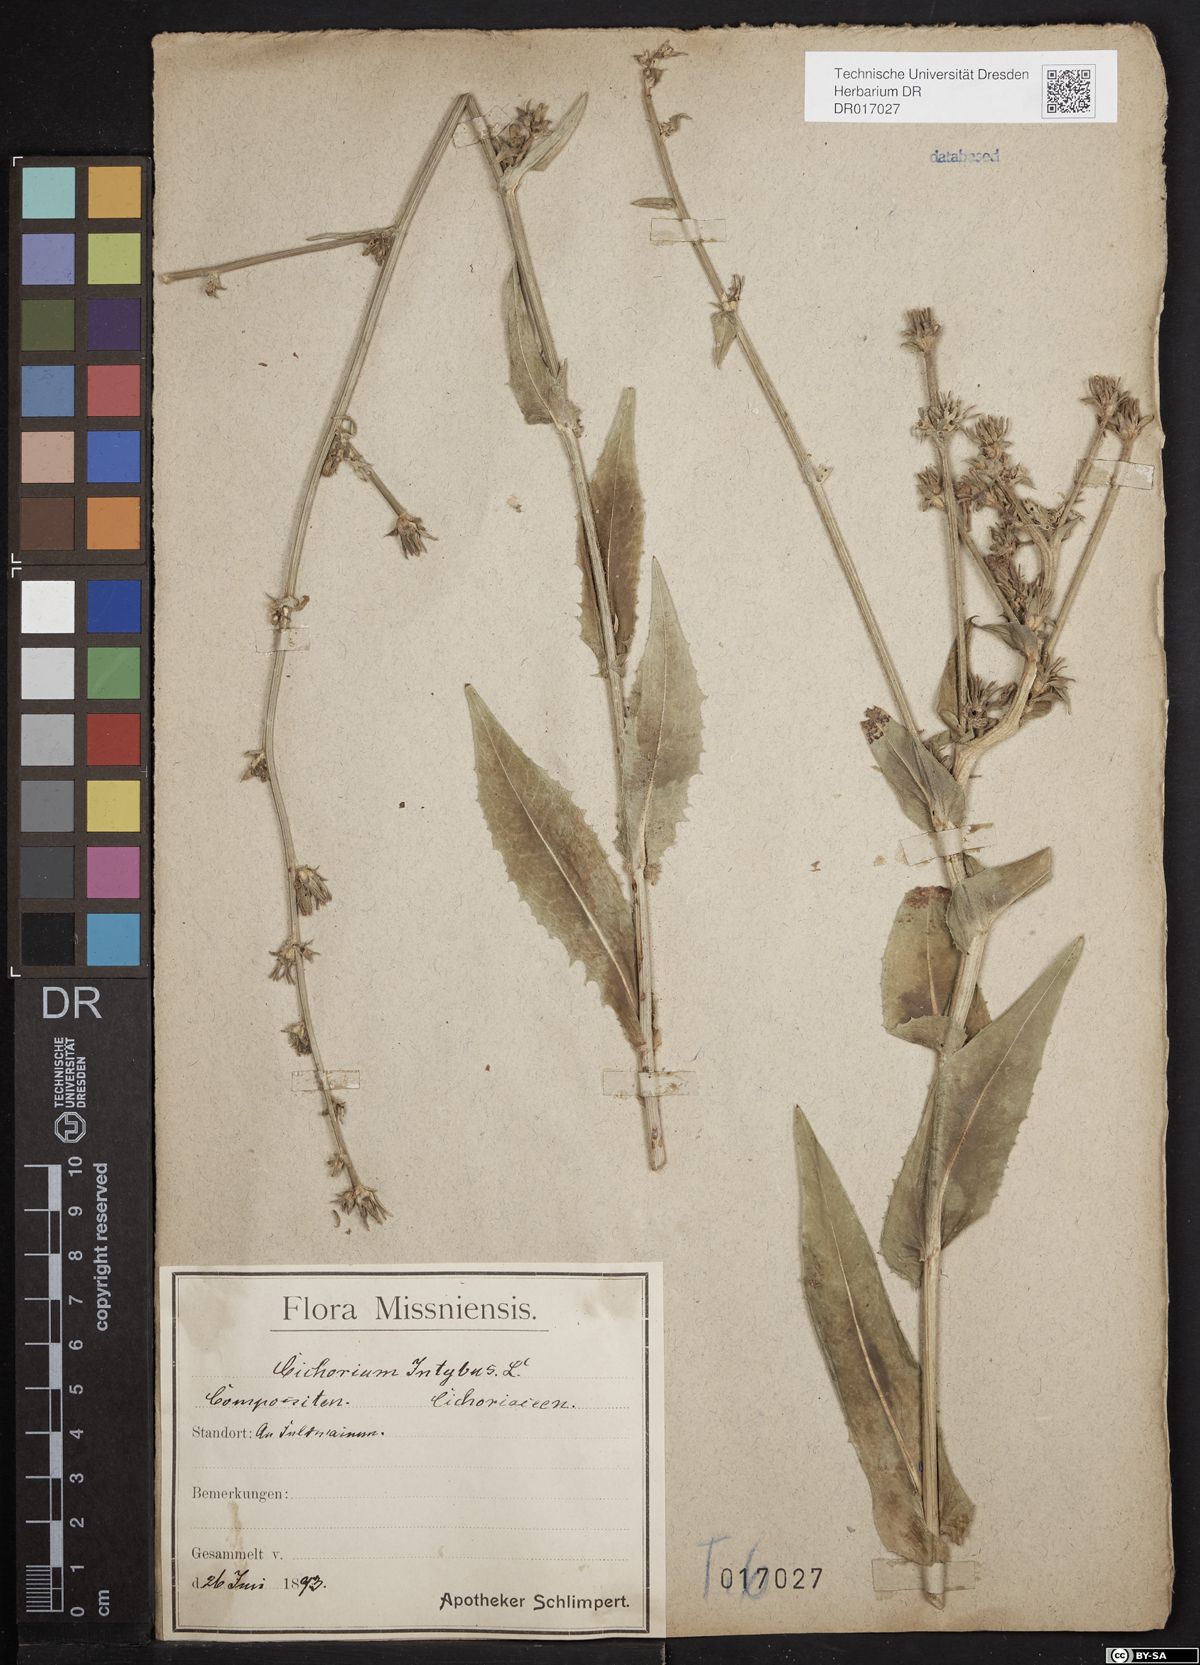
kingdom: Plantae
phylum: Tracheophyta
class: Magnoliopsida
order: Asterales
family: Asteraceae
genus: Cichorium
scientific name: Cichorium intybus
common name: Chicory
